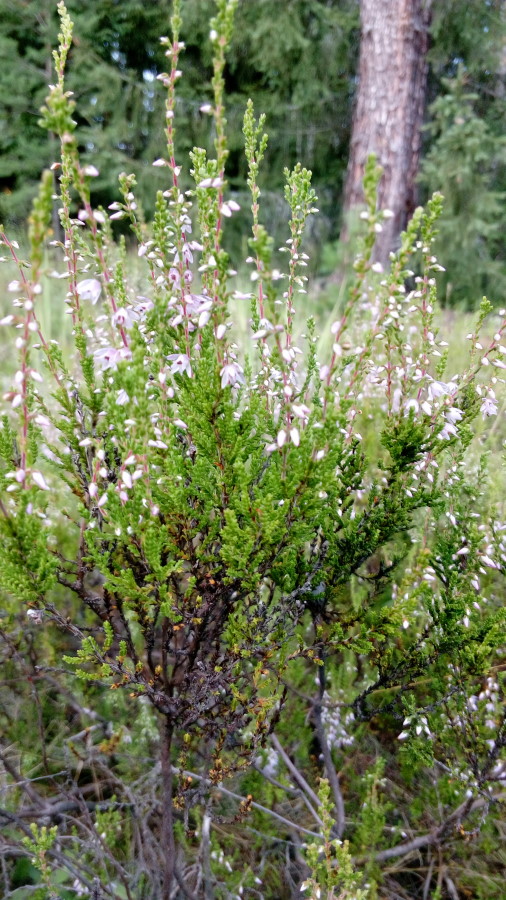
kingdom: Plantae
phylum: Tracheophyta
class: Magnoliopsida
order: Ericales
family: Ericaceae
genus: Calluna
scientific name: Calluna vulgaris
